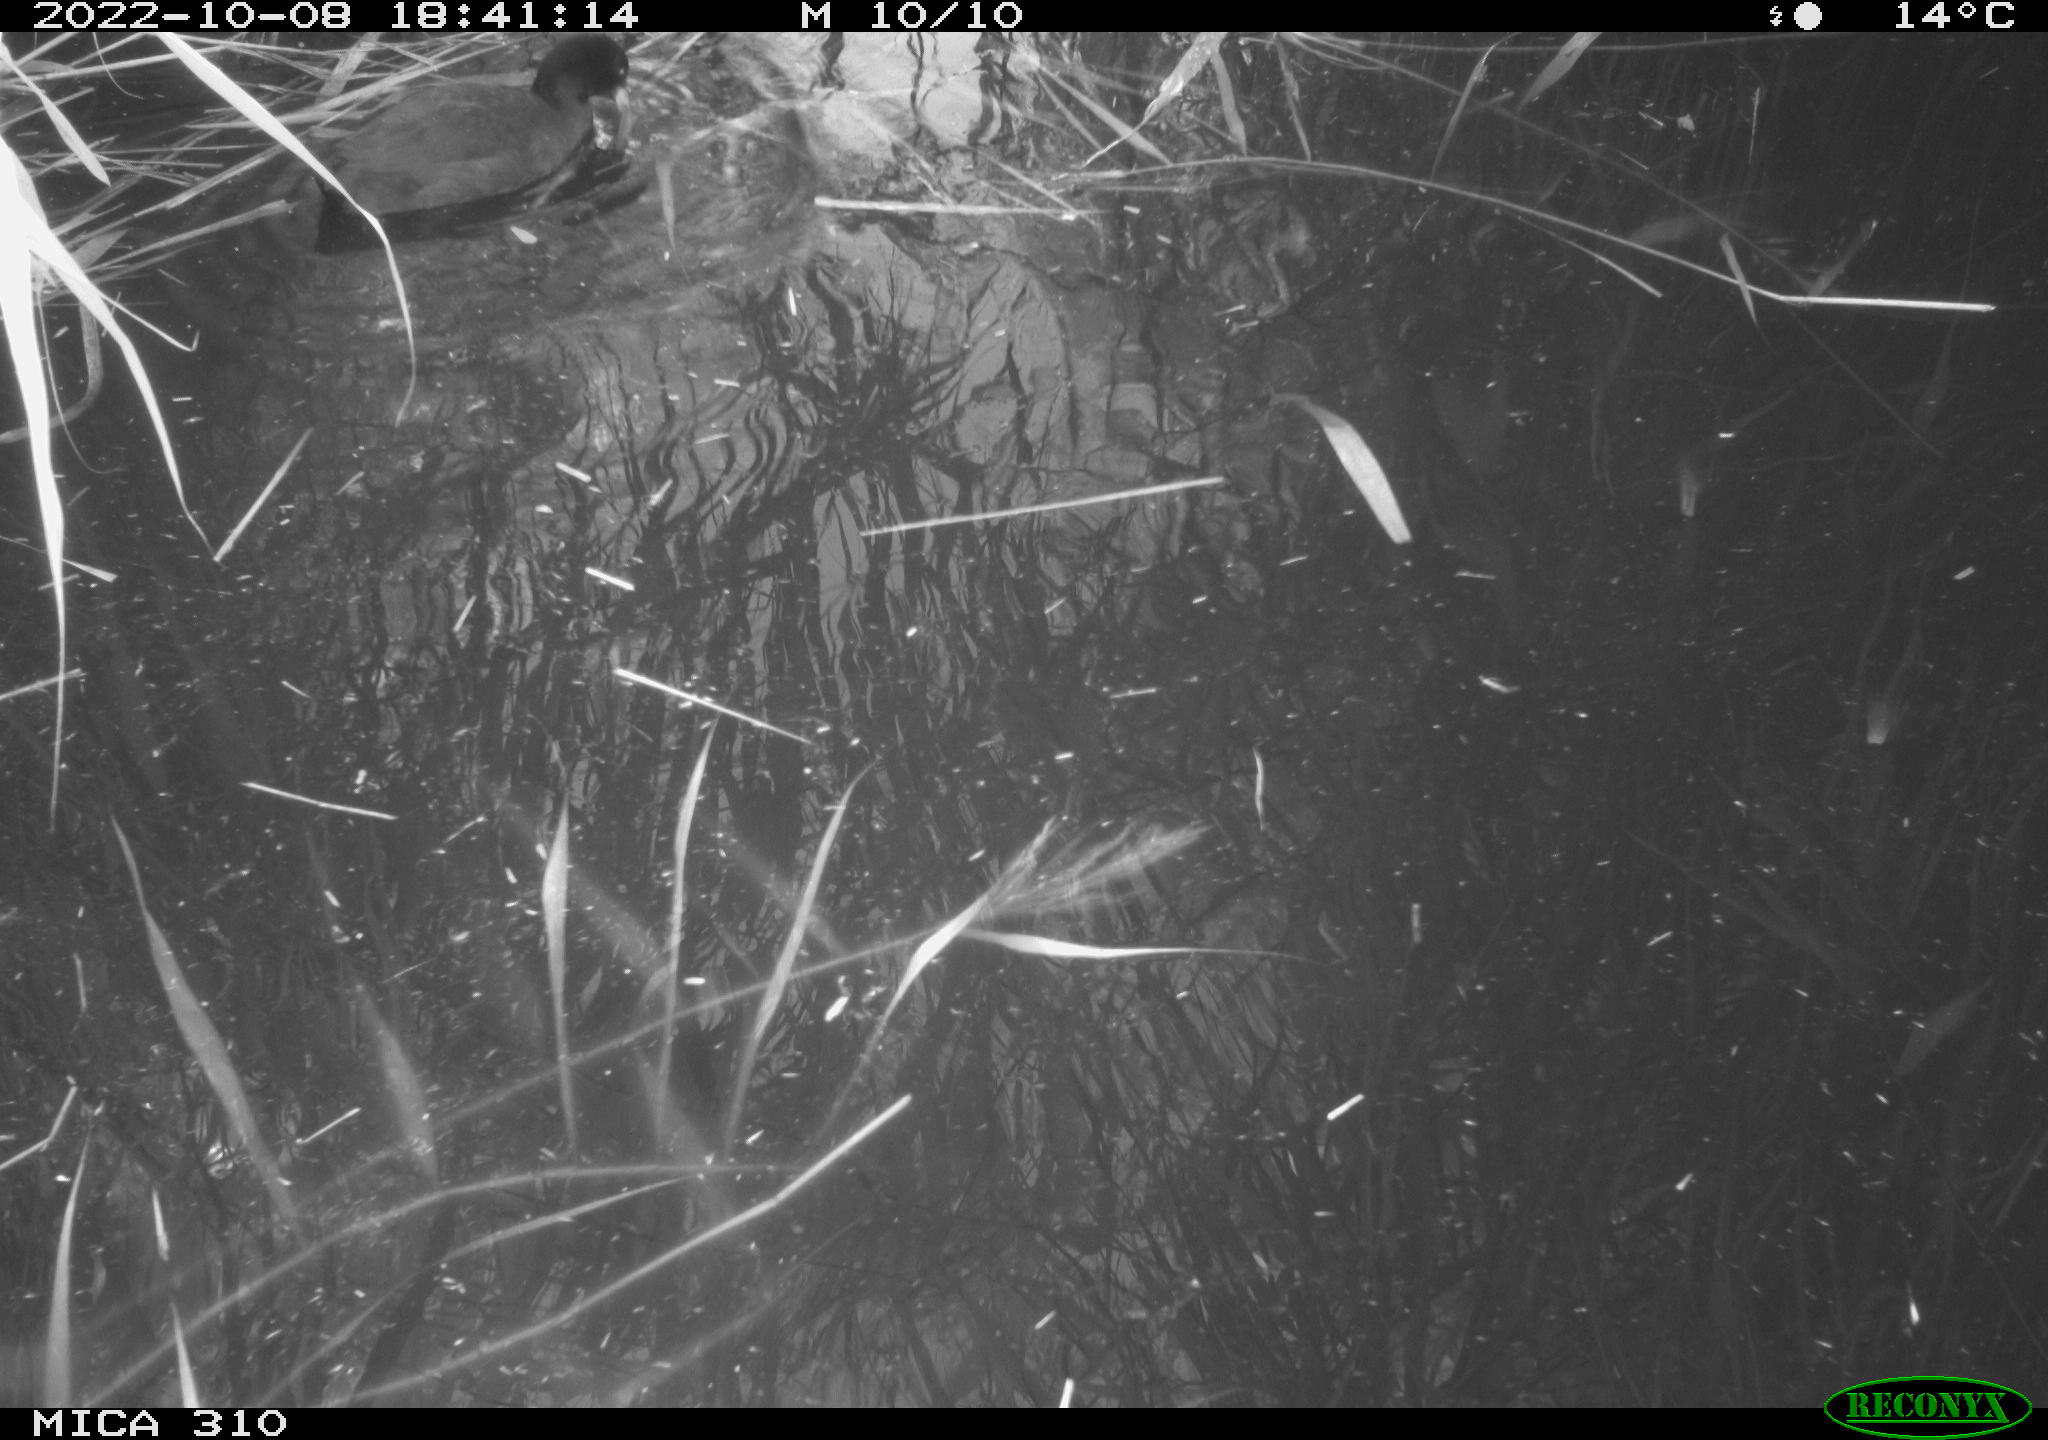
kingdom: Animalia
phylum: Chordata
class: Aves
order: Gruiformes
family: Rallidae
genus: Gallinula
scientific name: Gallinula chloropus
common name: Common moorhen
